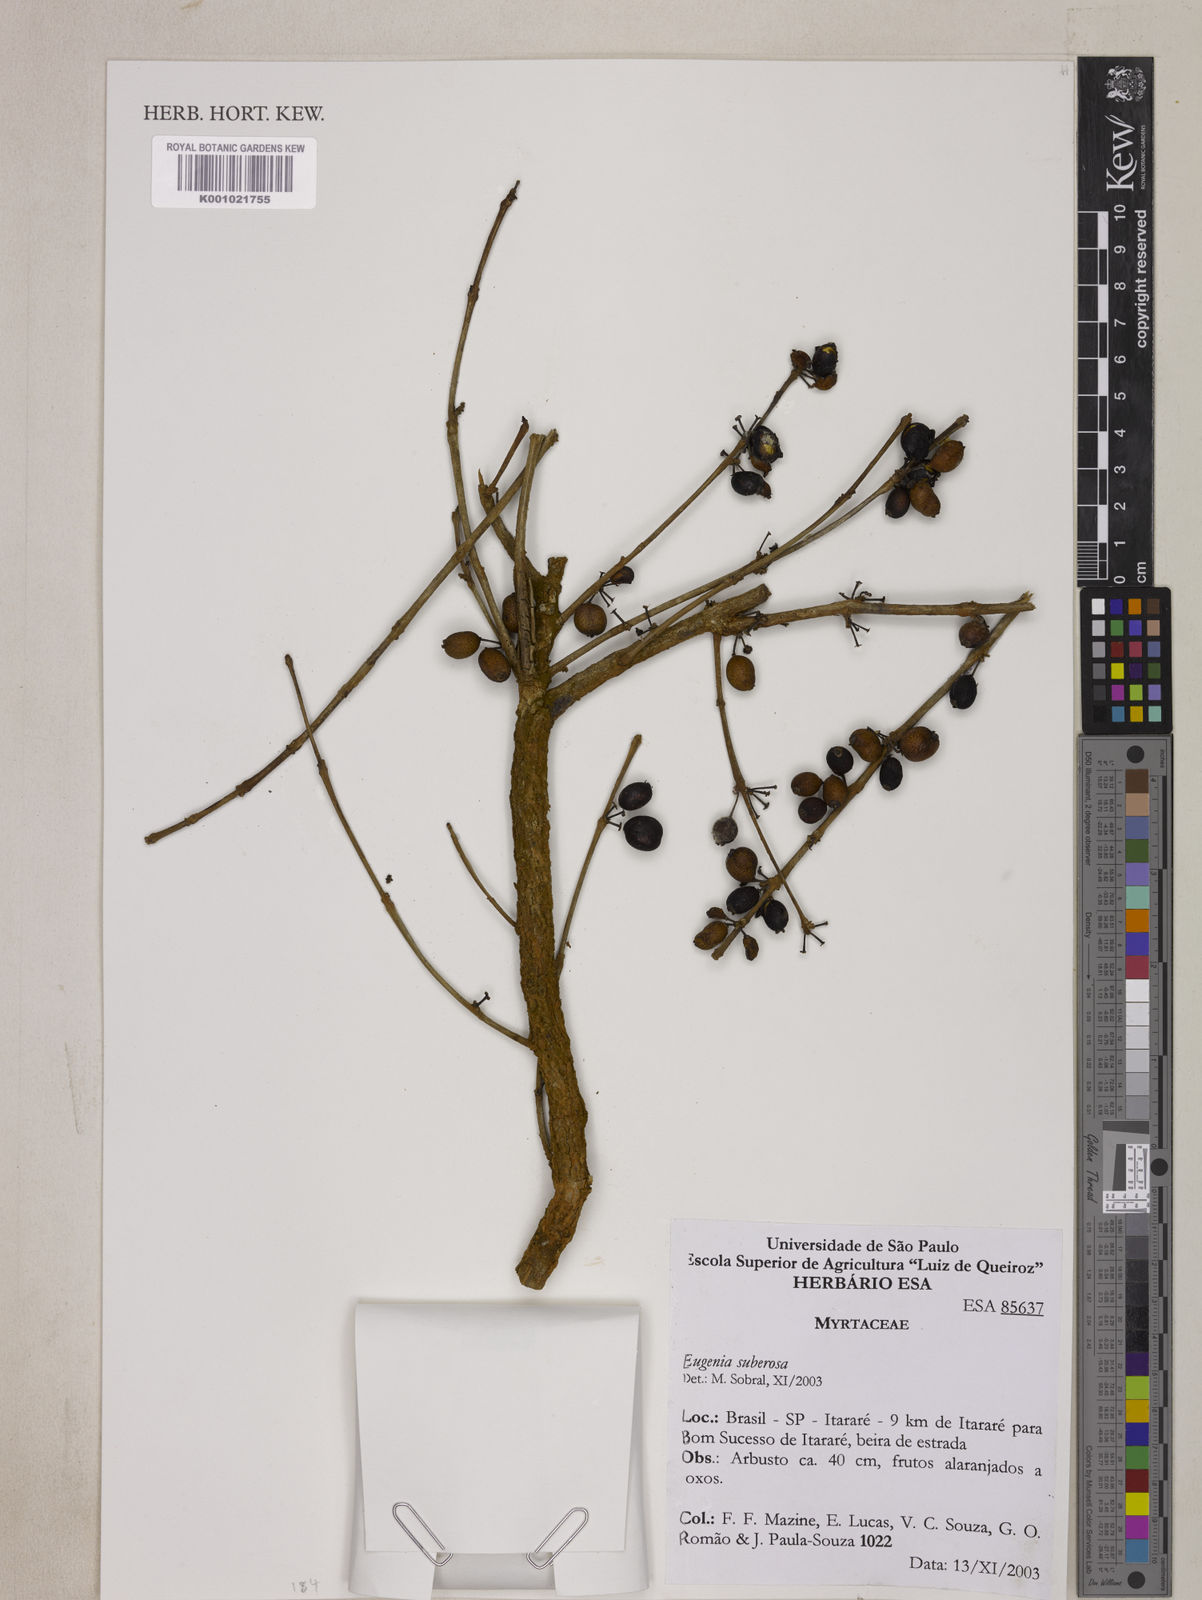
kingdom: Plantae
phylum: Tracheophyta
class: Magnoliopsida
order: Myrtales
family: Myrtaceae
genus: Eugenia
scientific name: Eugenia suberosa
